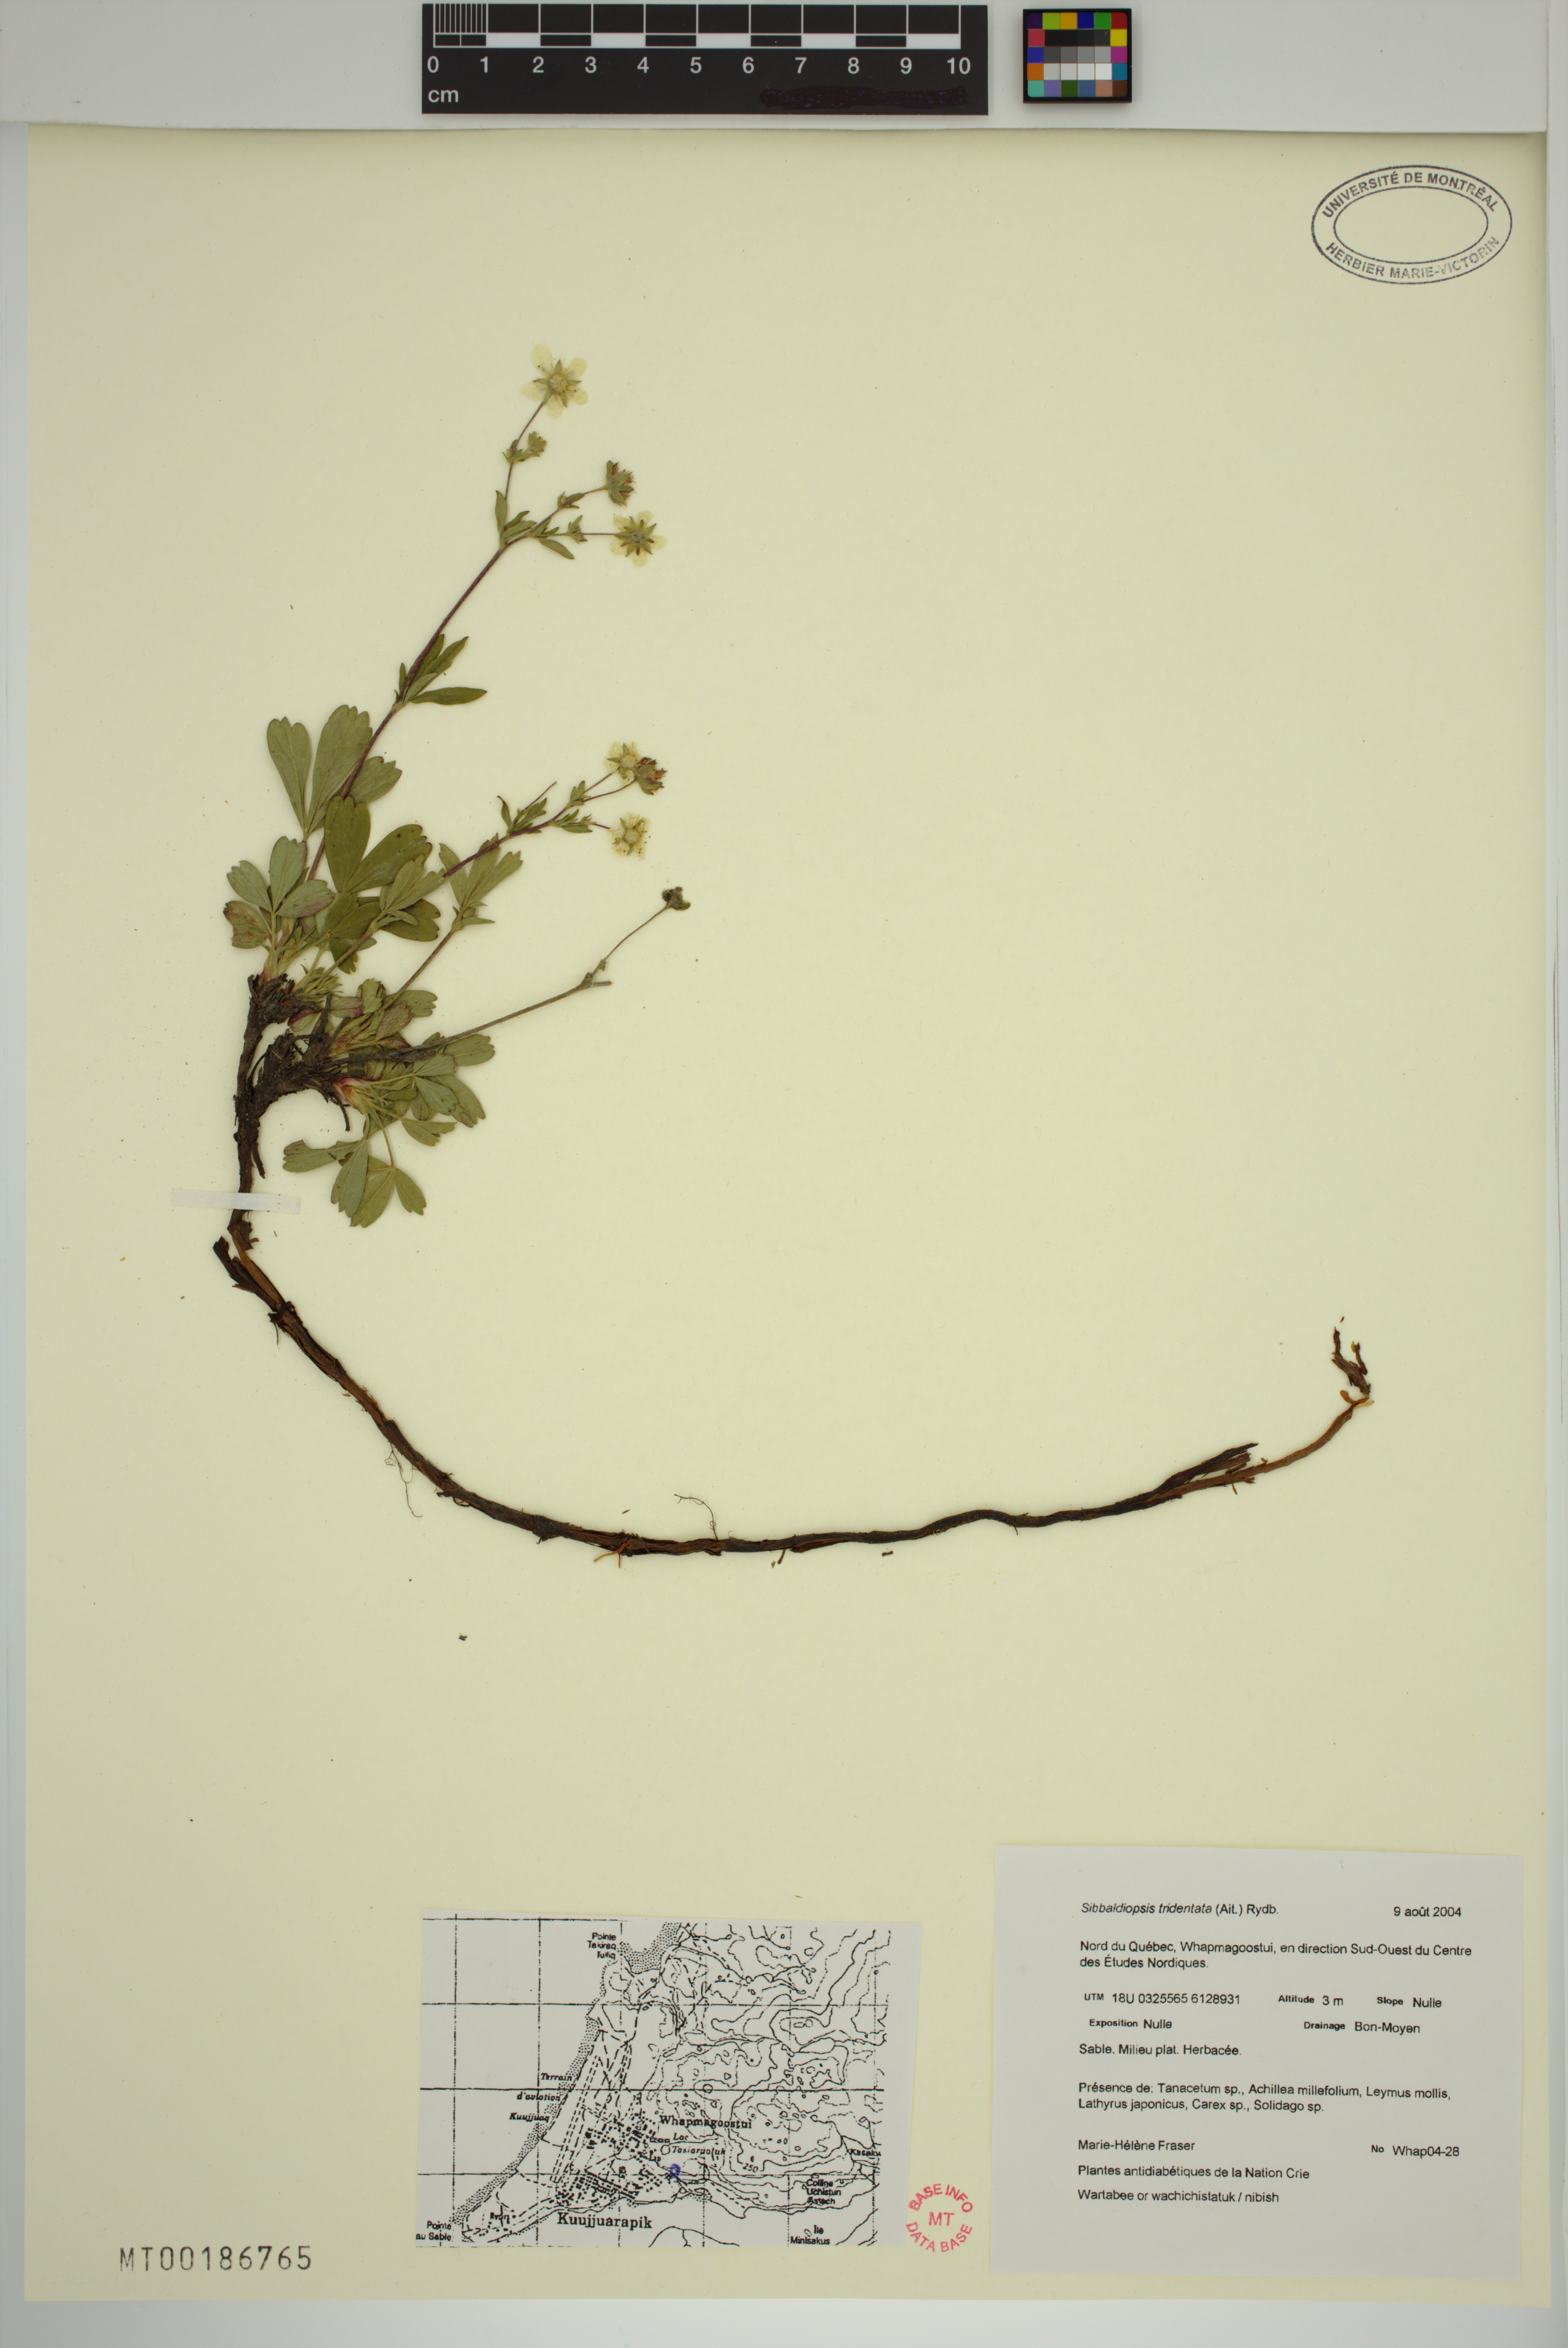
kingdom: Plantae
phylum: Tracheophyta
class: Magnoliopsida
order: Rosales
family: Rosaceae
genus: Sibbaldia
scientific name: Sibbaldia tridentata
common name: Three-toothed cinquefoil
